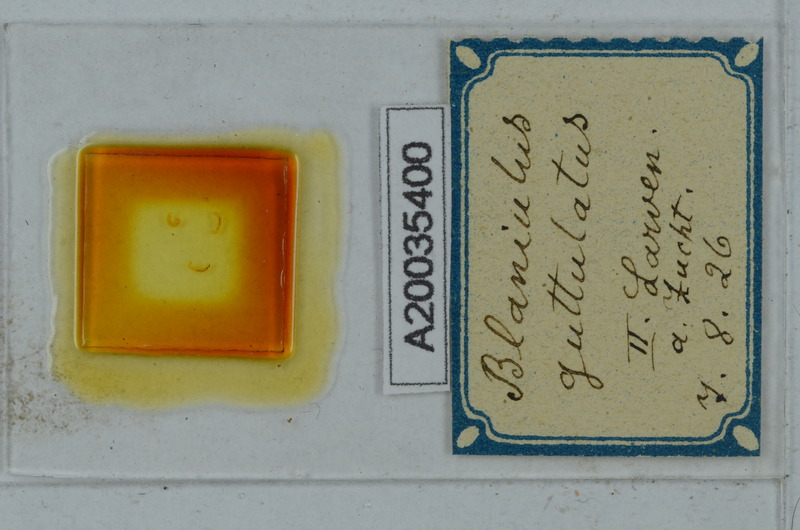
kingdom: Animalia
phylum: Arthropoda
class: Diplopoda
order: Julida
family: Blaniulidae
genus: Blaniulus
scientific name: Blaniulus guttulatus
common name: Spotted snake millipede
